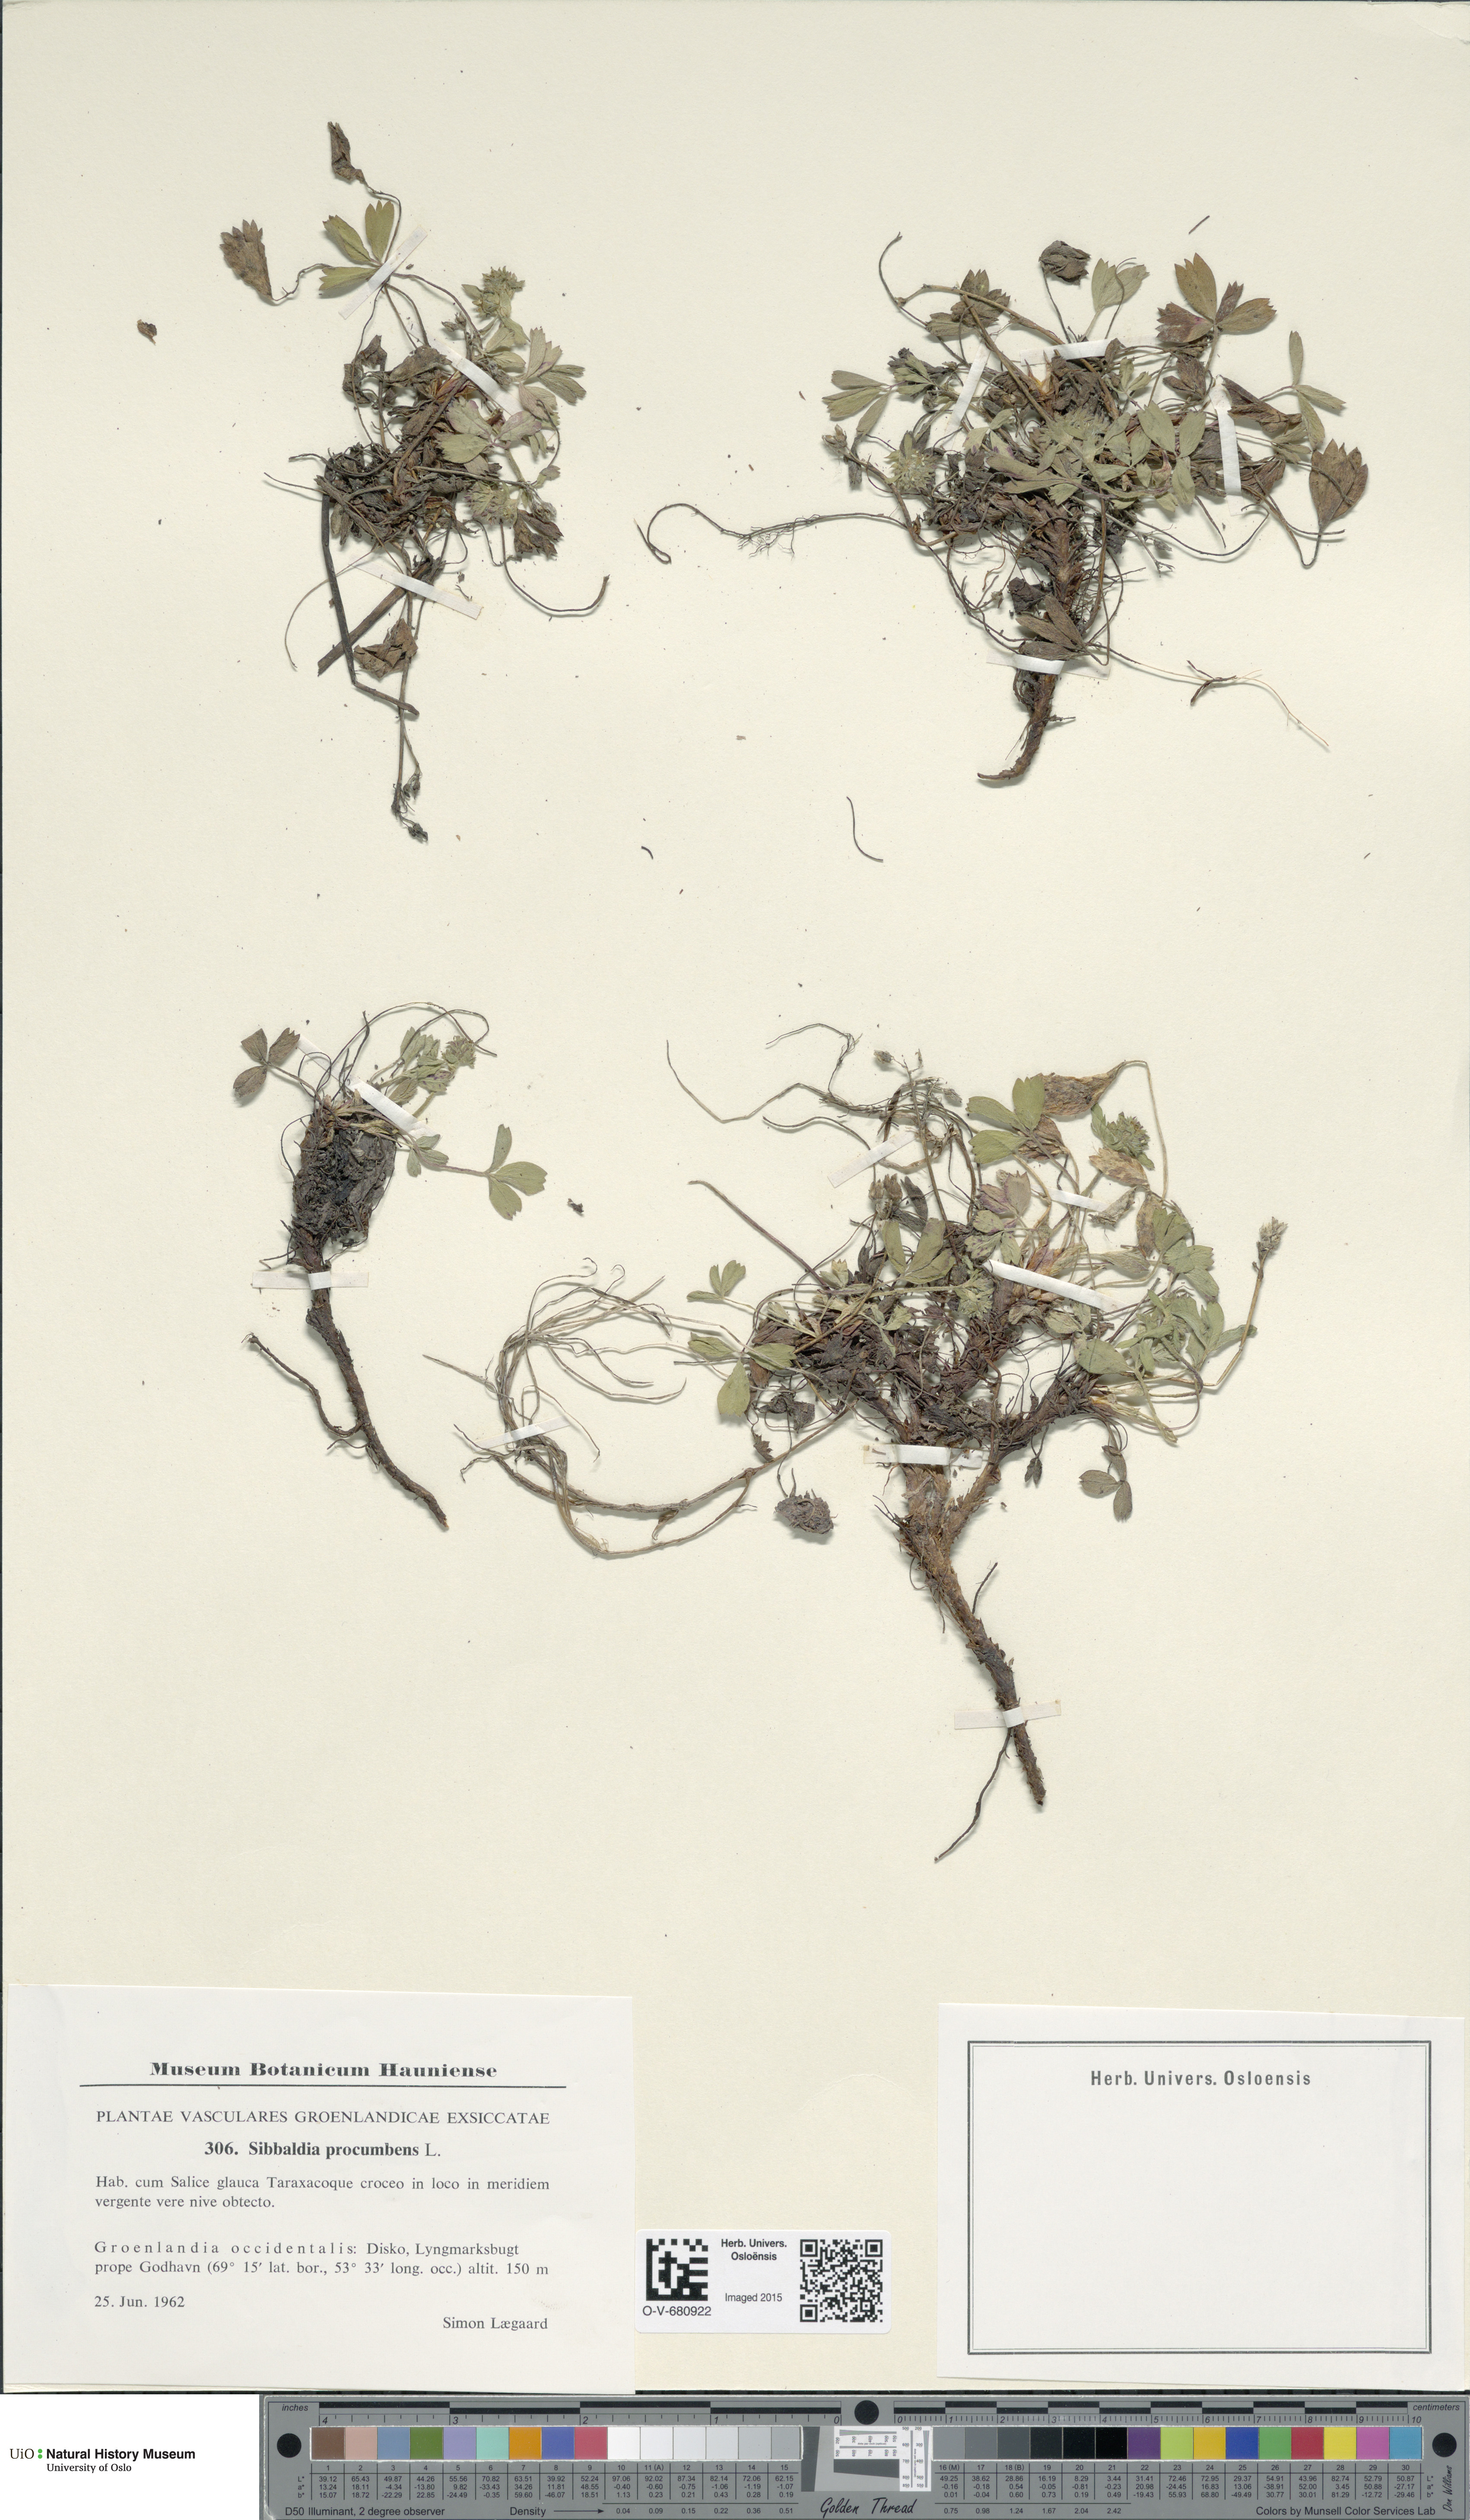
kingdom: Plantae
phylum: Tracheophyta
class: Magnoliopsida
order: Rosales
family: Rosaceae
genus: Sibbaldia
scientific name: Sibbaldia procumbens
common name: Creeping sibbaldia
